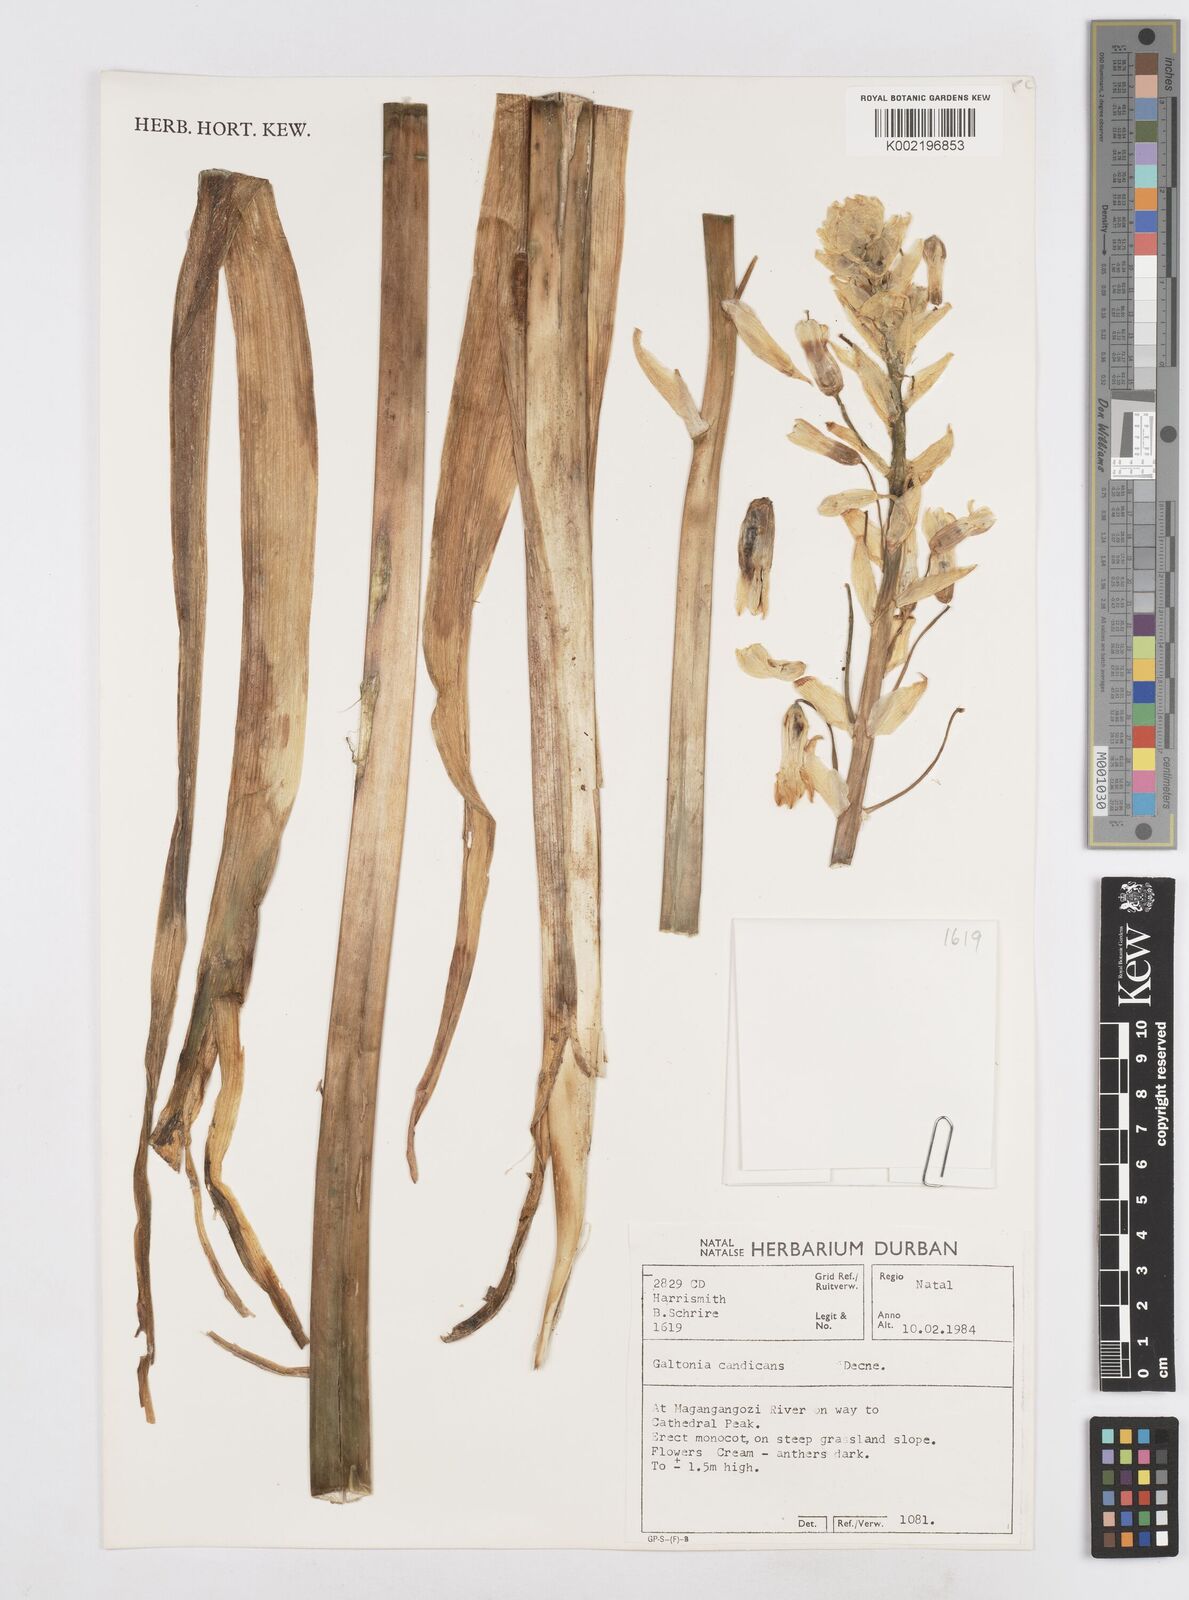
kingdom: Plantae
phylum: Tracheophyta
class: Liliopsida
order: Asparagales
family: Asparagaceae
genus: Ornithogalum
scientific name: Ornithogalum candicans
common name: Summer-hyacinth
